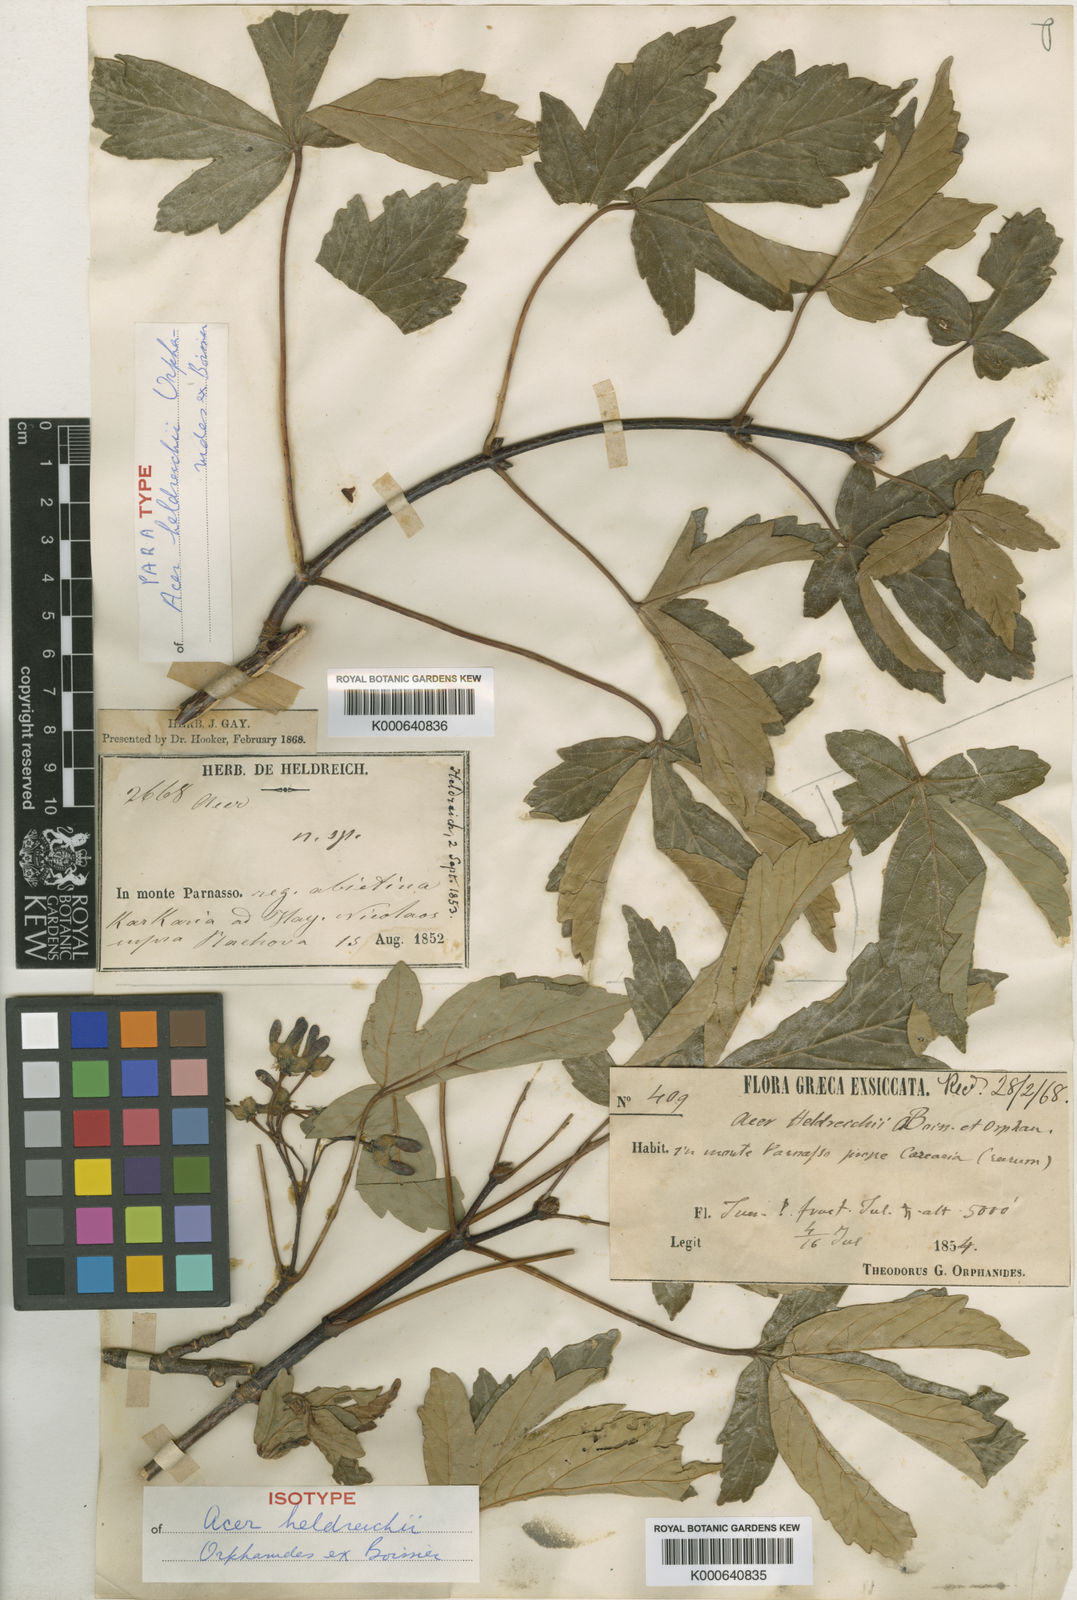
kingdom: Plantae
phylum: Tracheophyta
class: Magnoliopsida
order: Sapindales
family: Sapindaceae
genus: Acer
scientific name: Acer heldreichii
